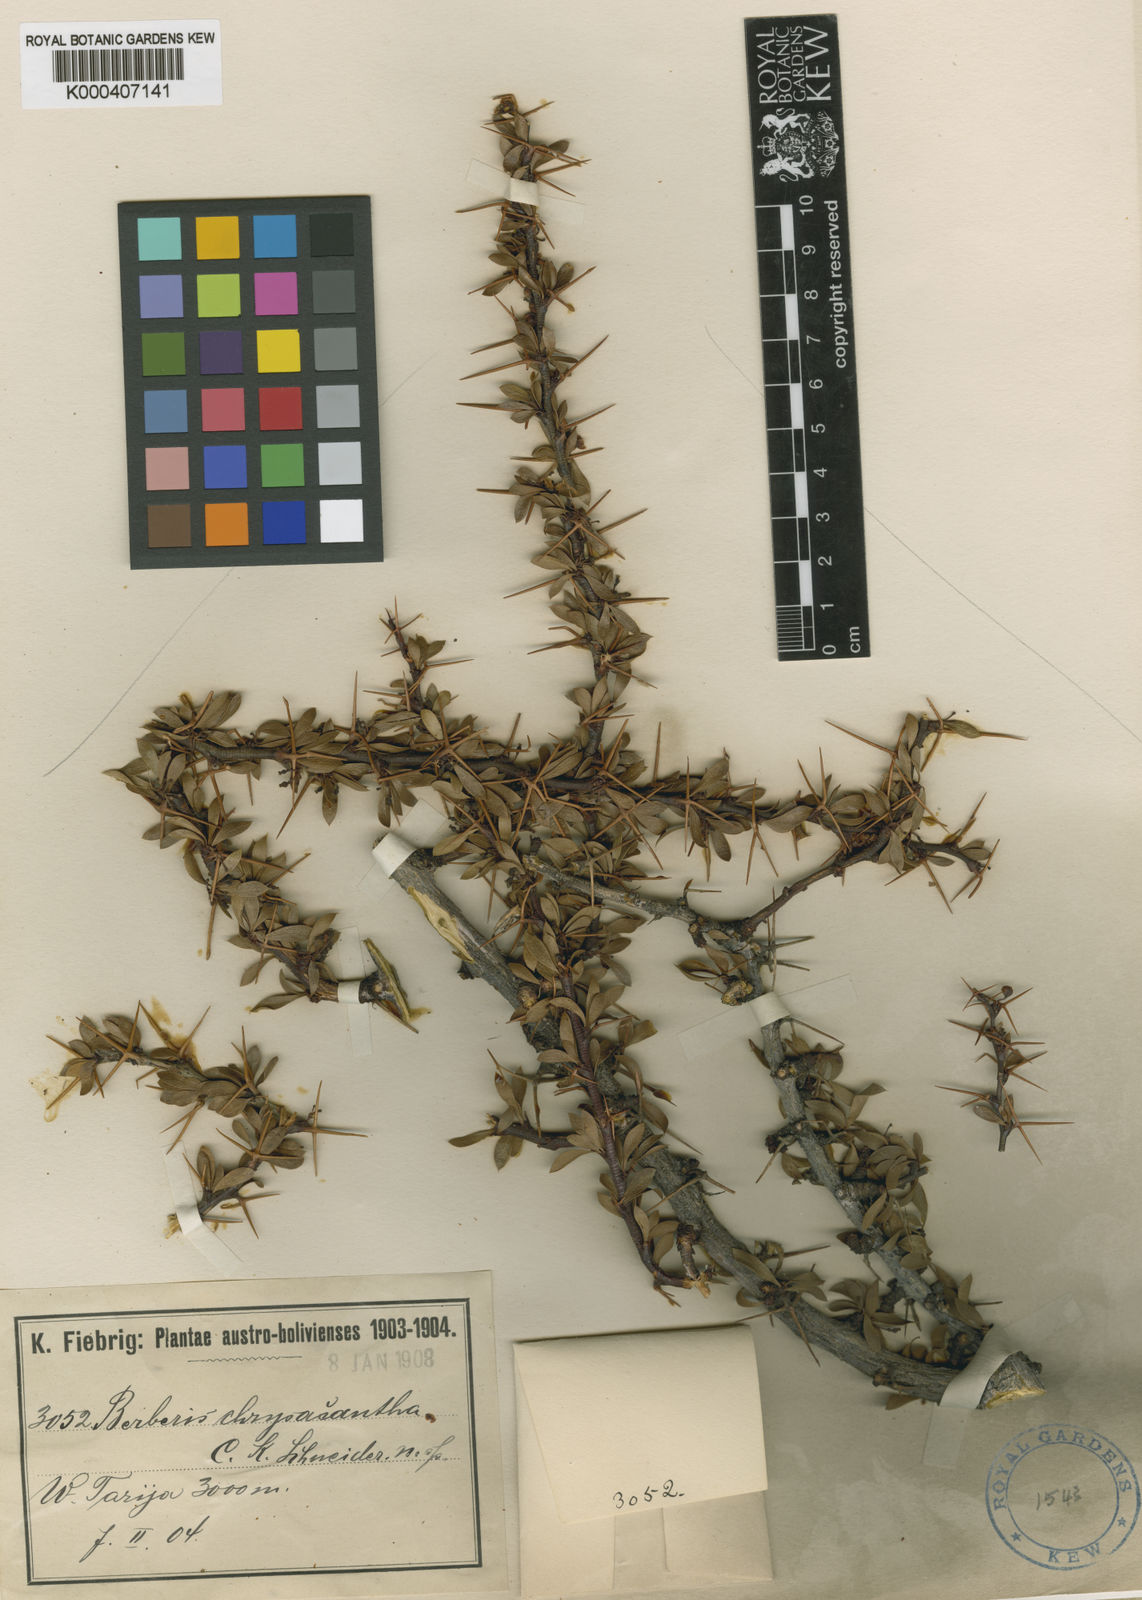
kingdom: Plantae
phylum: Tracheophyta
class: Magnoliopsida
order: Ranunculales
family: Berberidaceae
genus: Berberis
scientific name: Berberis boliviana
